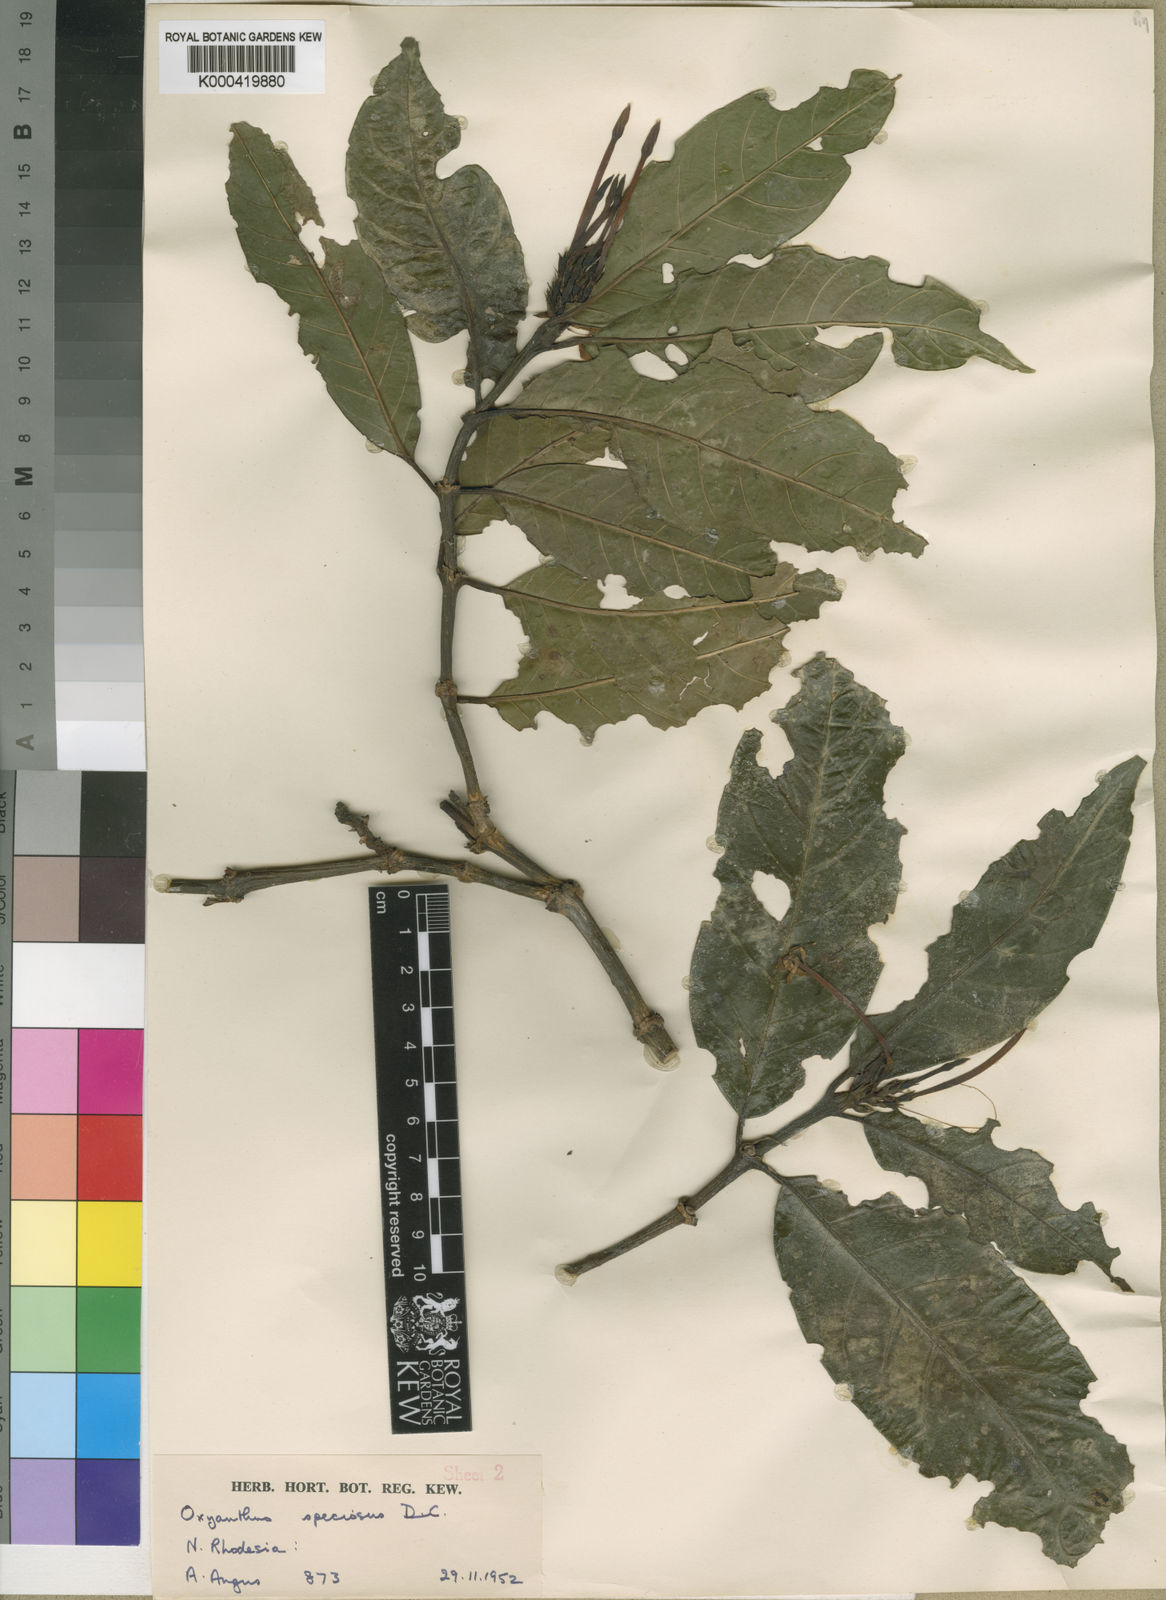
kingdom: Plantae
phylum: Tracheophyta
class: Magnoliopsida
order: Gentianales
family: Rubiaceae
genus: Oxyanthus
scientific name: Oxyanthus speciosus
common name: Whipstick loquat
